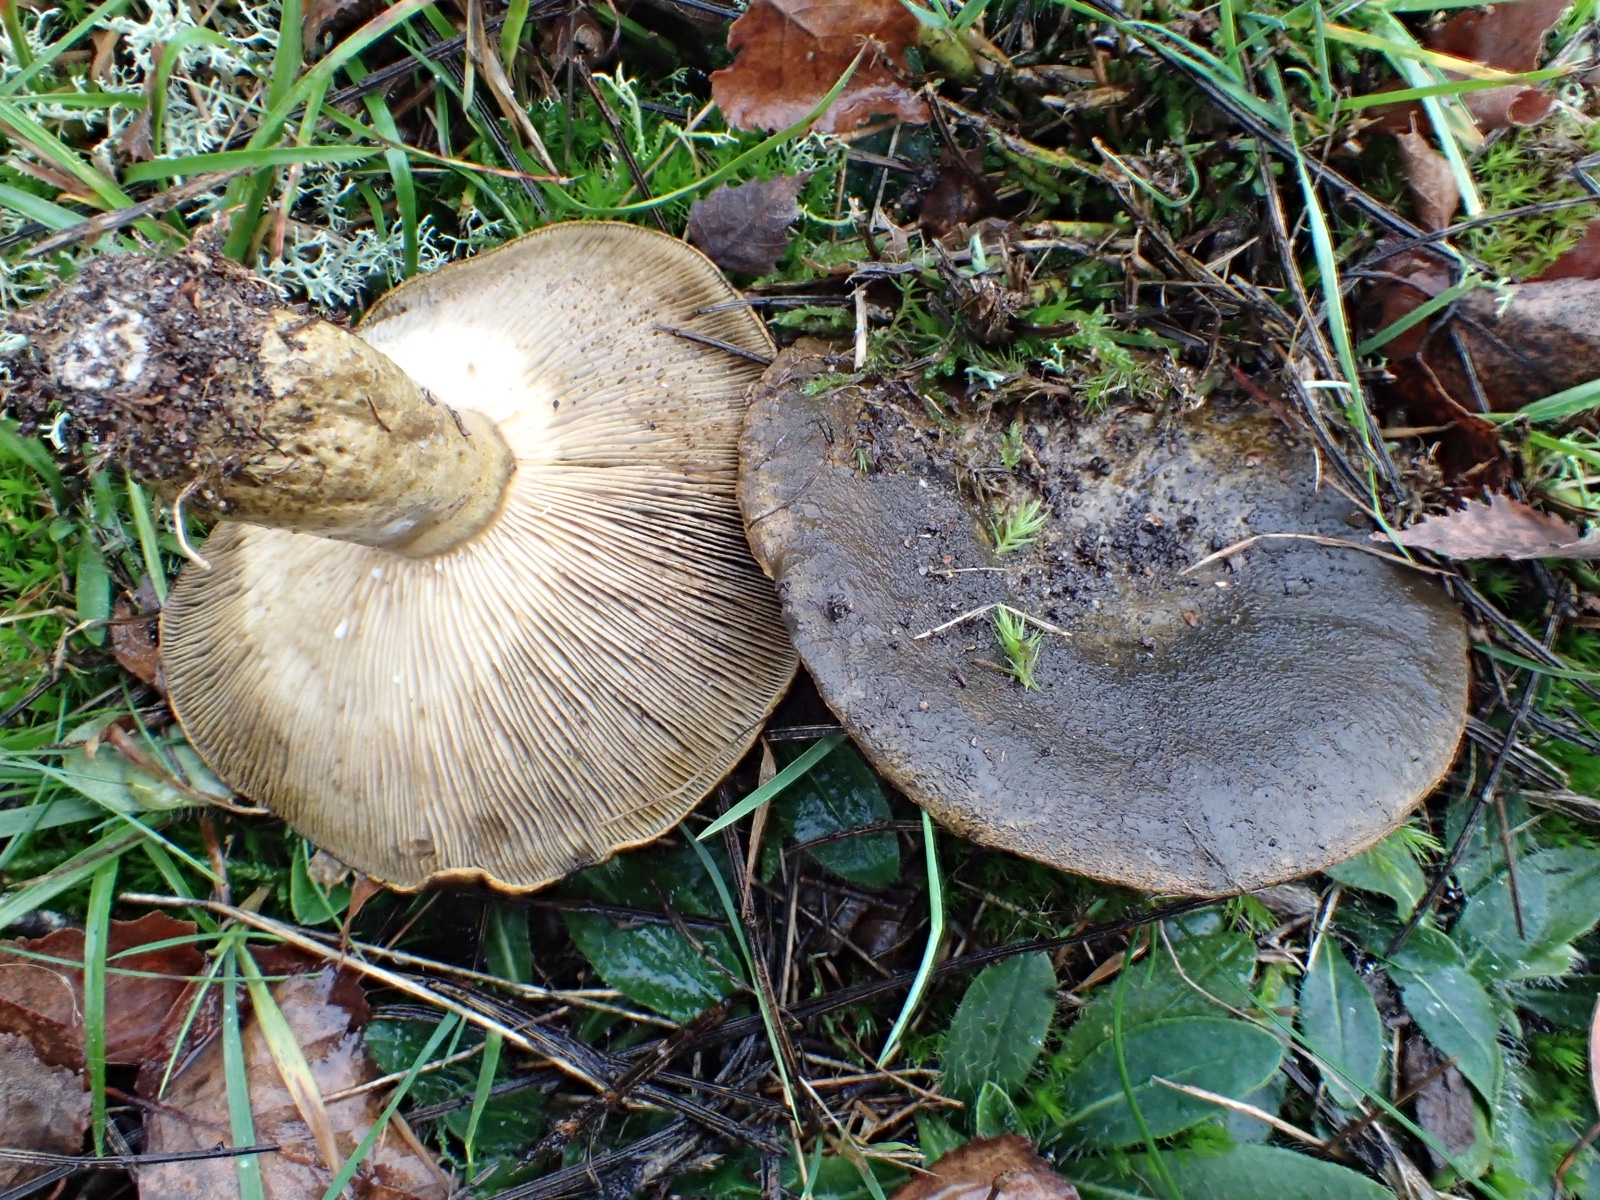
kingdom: Fungi
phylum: Basidiomycota
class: Agaricomycetes
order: Russulales
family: Russulaceae
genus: Lactarius
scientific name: Lactarius necator
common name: manddraber-mælkehat
